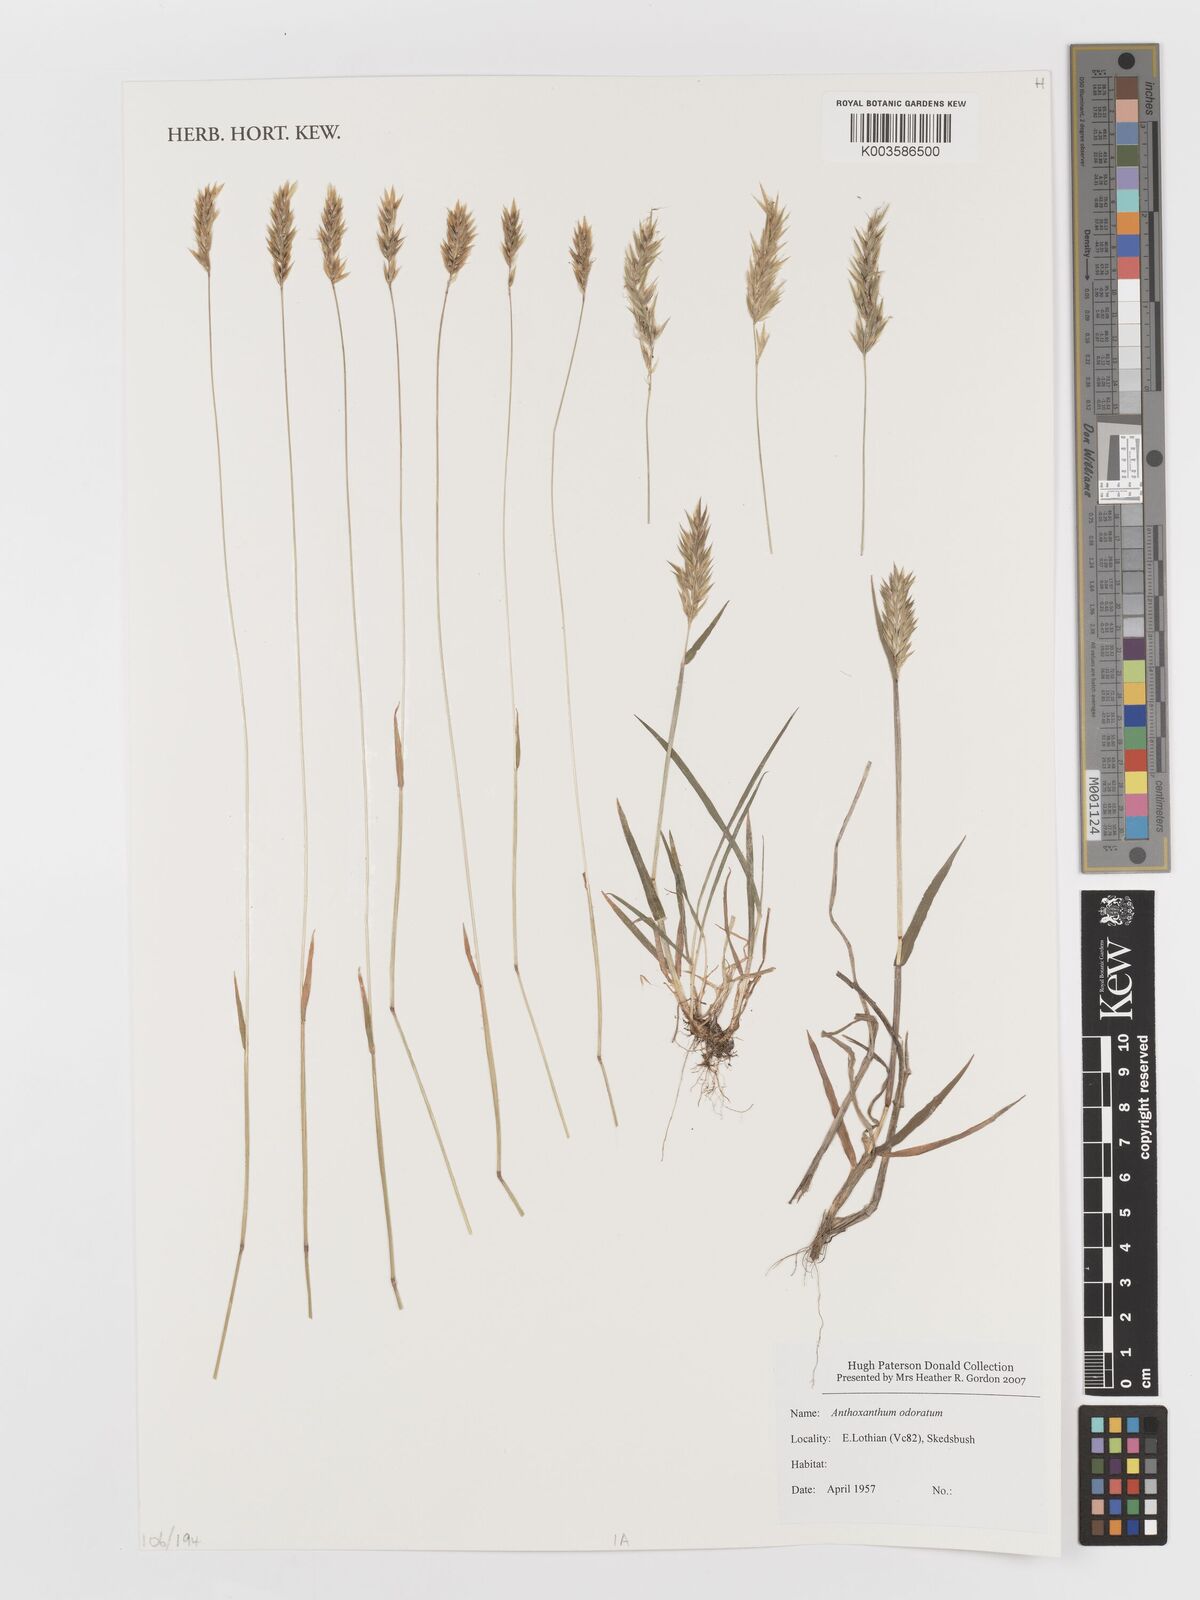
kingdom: Plantae
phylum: Tracheophyta
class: Liliopsida
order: Poales
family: Poaceae
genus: Anthoxanthum
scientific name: Anthoxanthum odoratum
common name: Sweet vernalgrass
